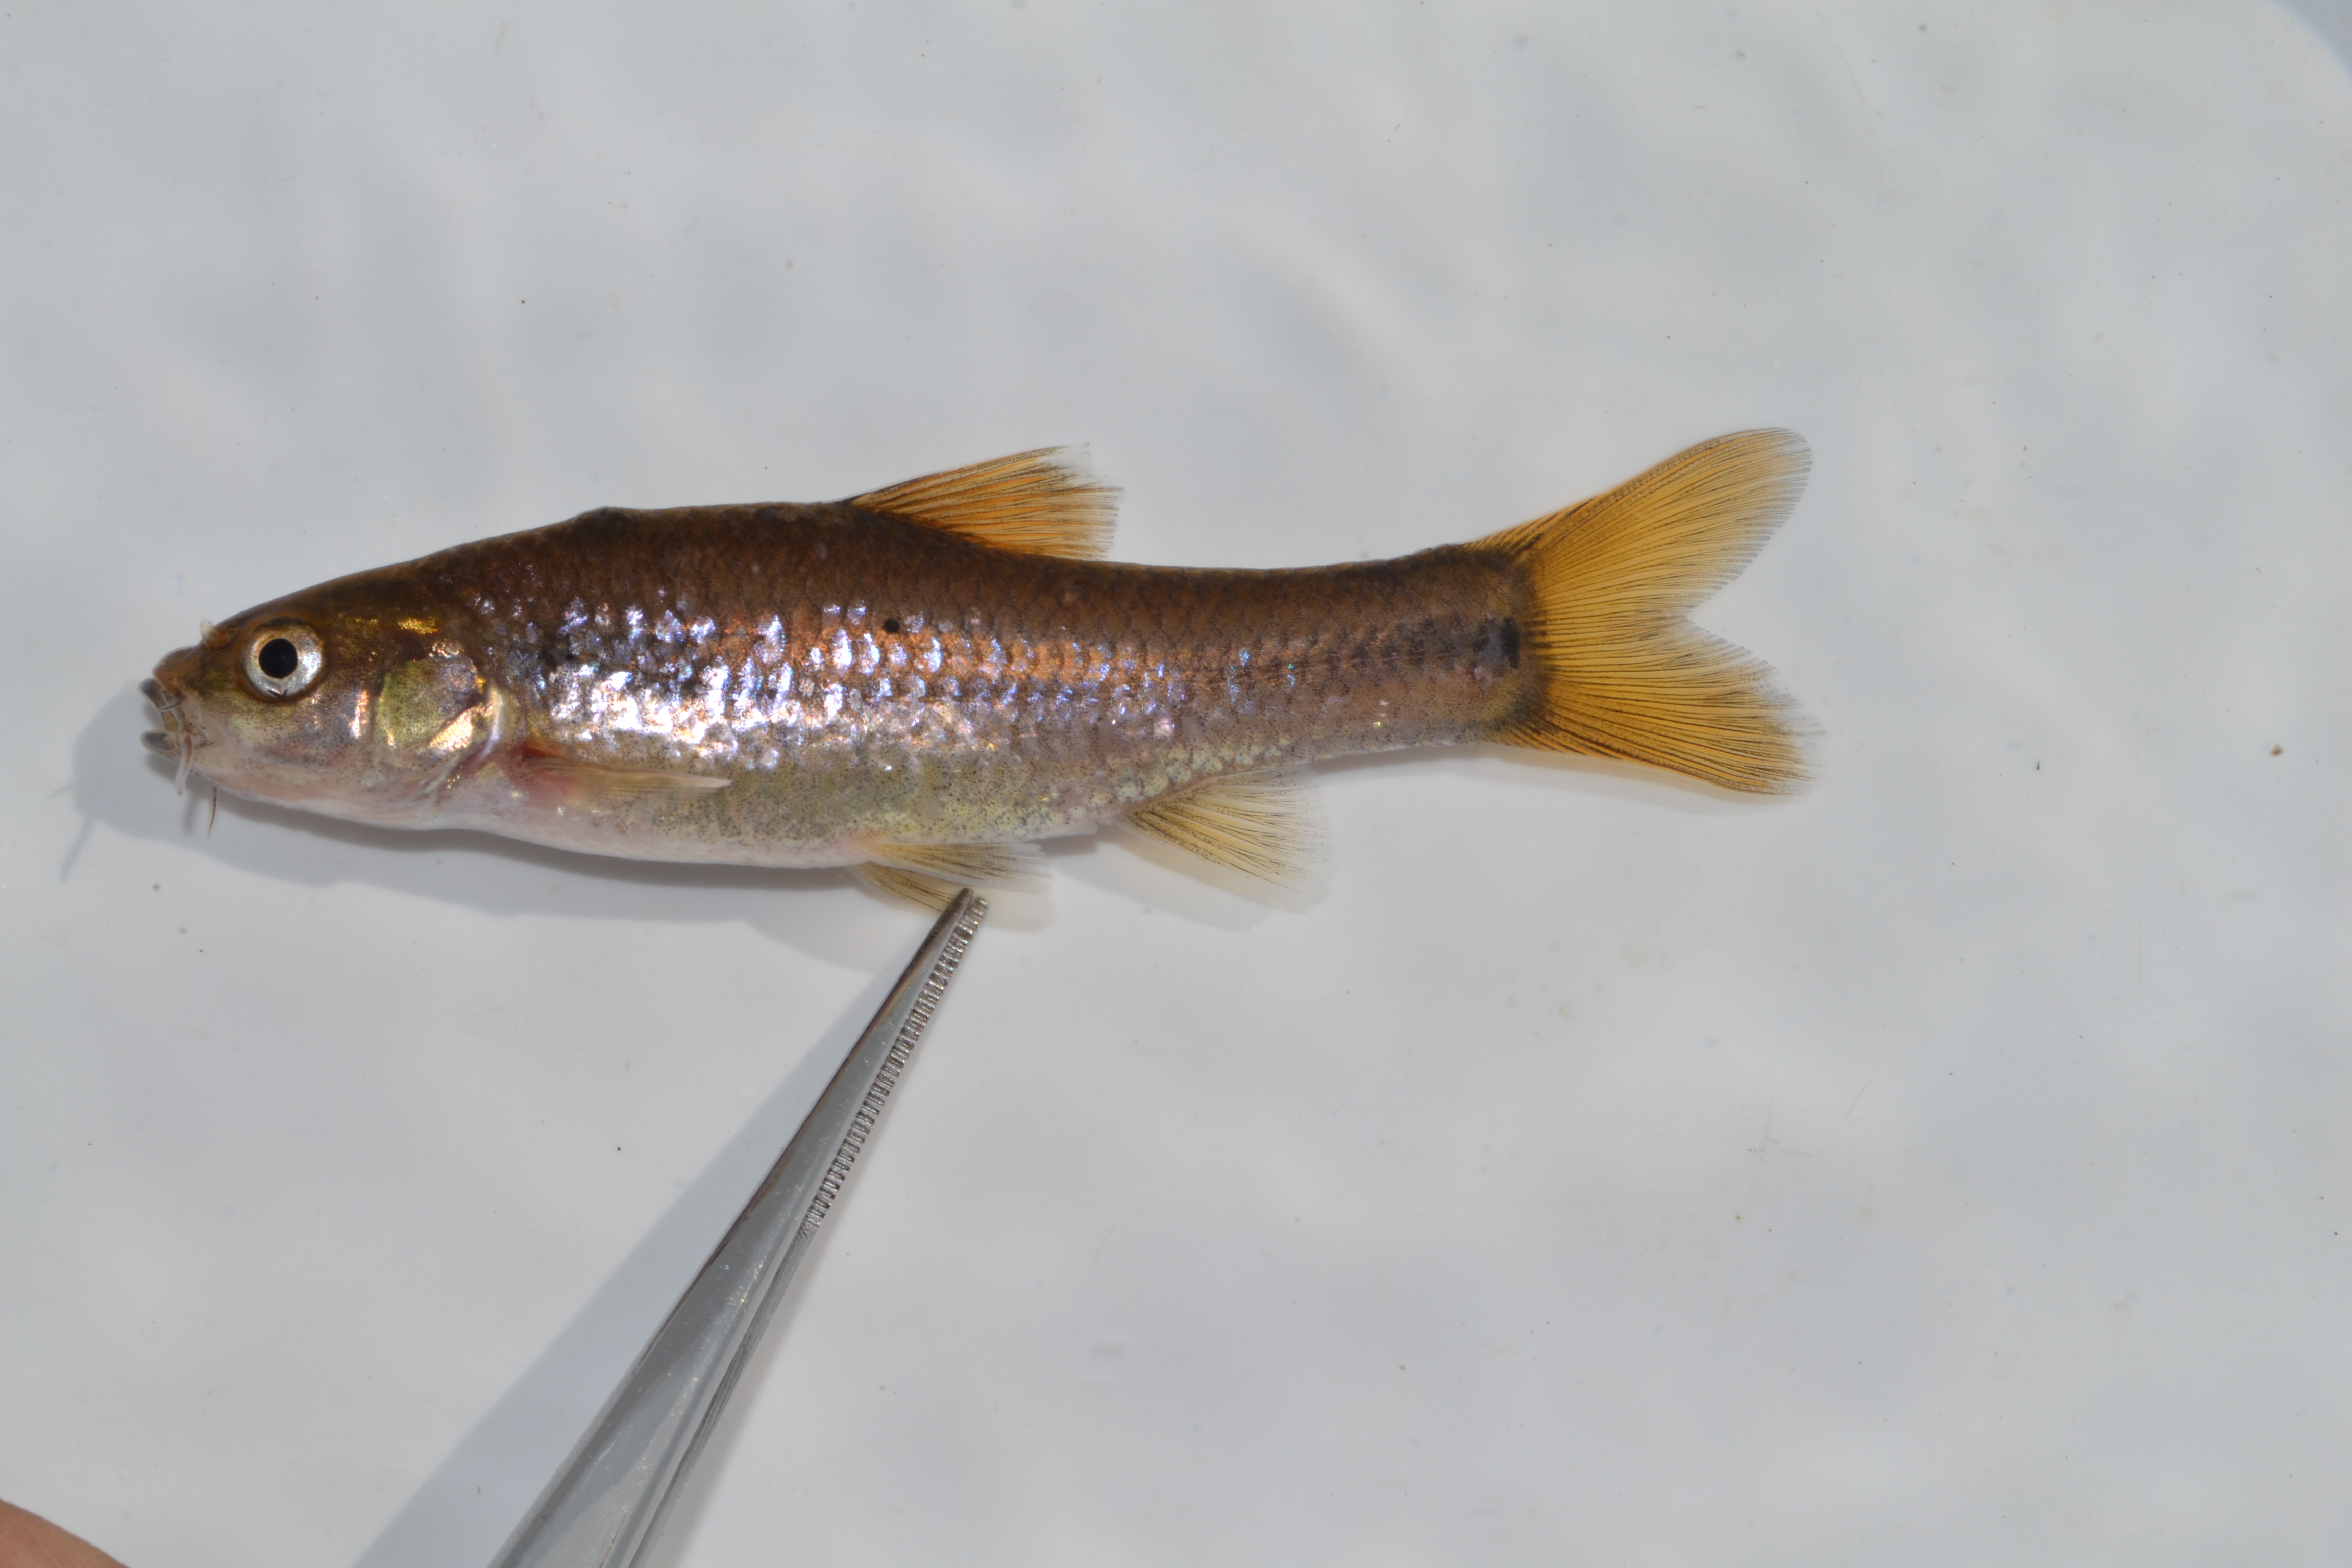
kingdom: Animalia
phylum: Chordata
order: Cypriniformes
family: Cyprinidae
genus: Enteromius
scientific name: Enteromius treurensis
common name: Treur river barb
